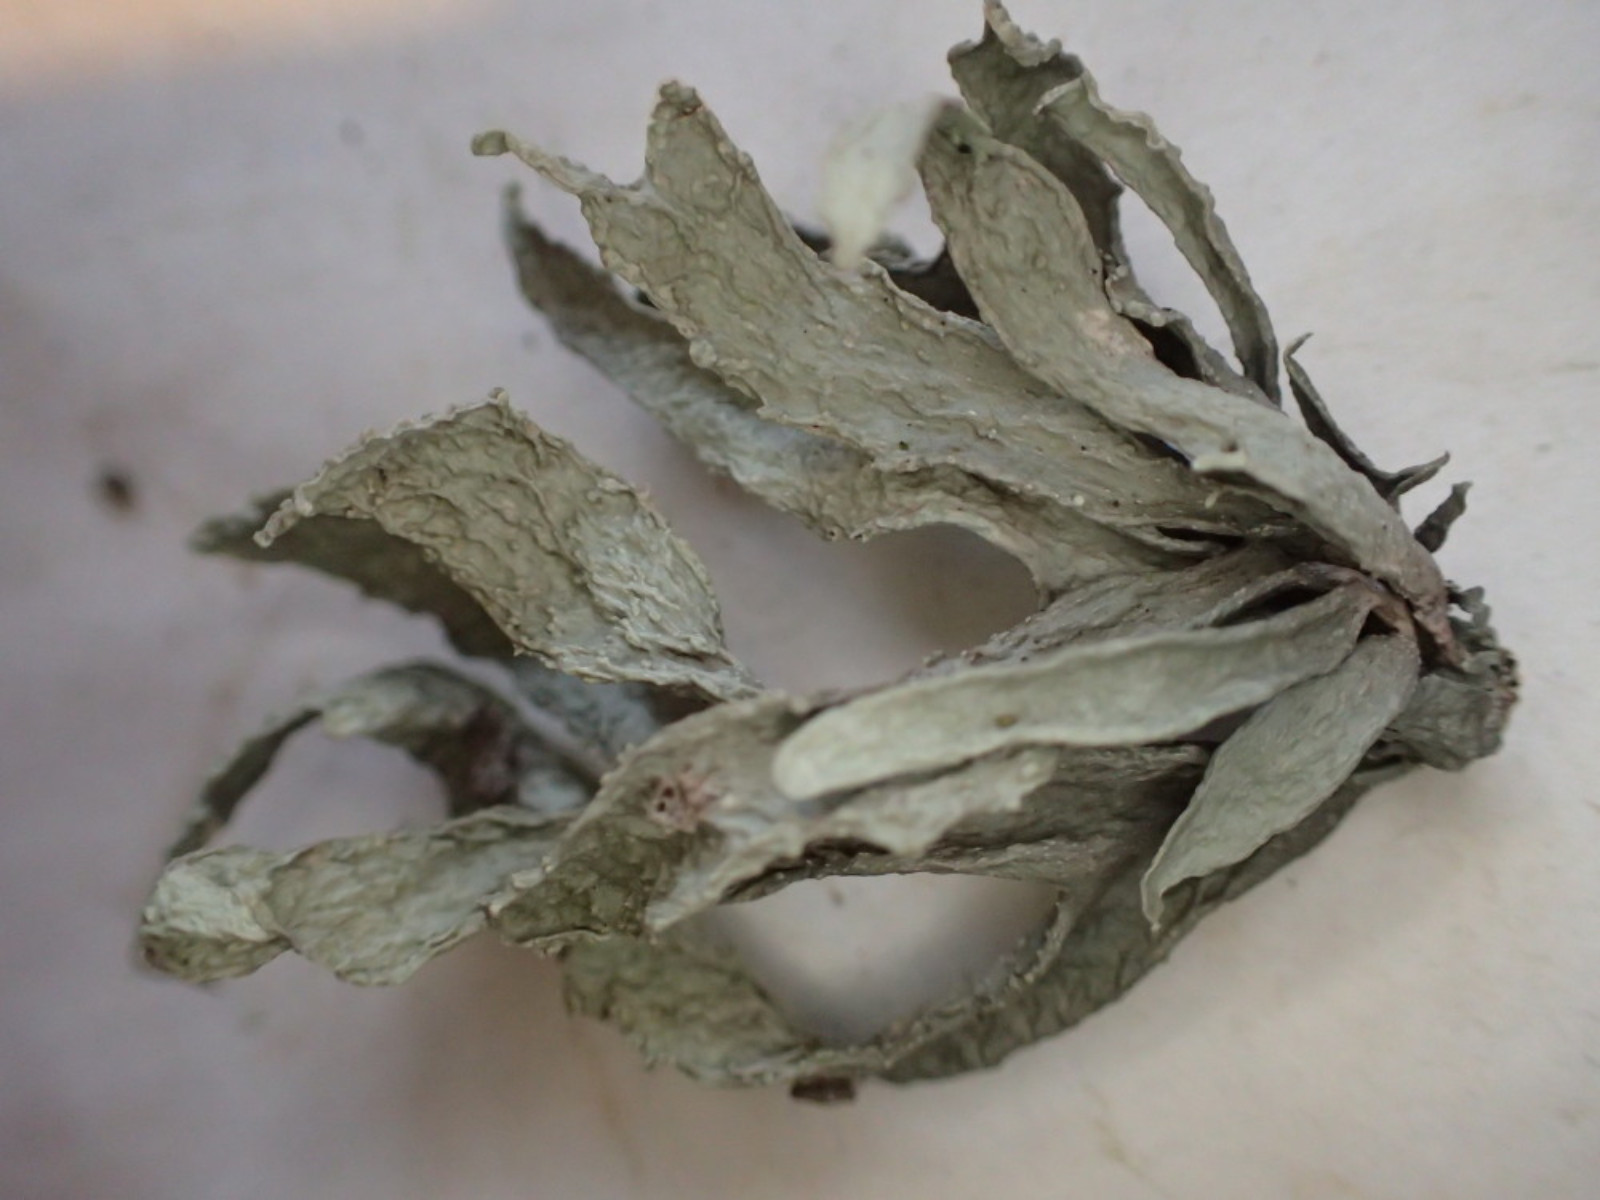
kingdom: Fungi
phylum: Ascomycota
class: Lecanoromycetes
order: Lecanorales
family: Ramalinaceae
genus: Ramalina
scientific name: Ramalina fraxinea
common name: stor grenlav
